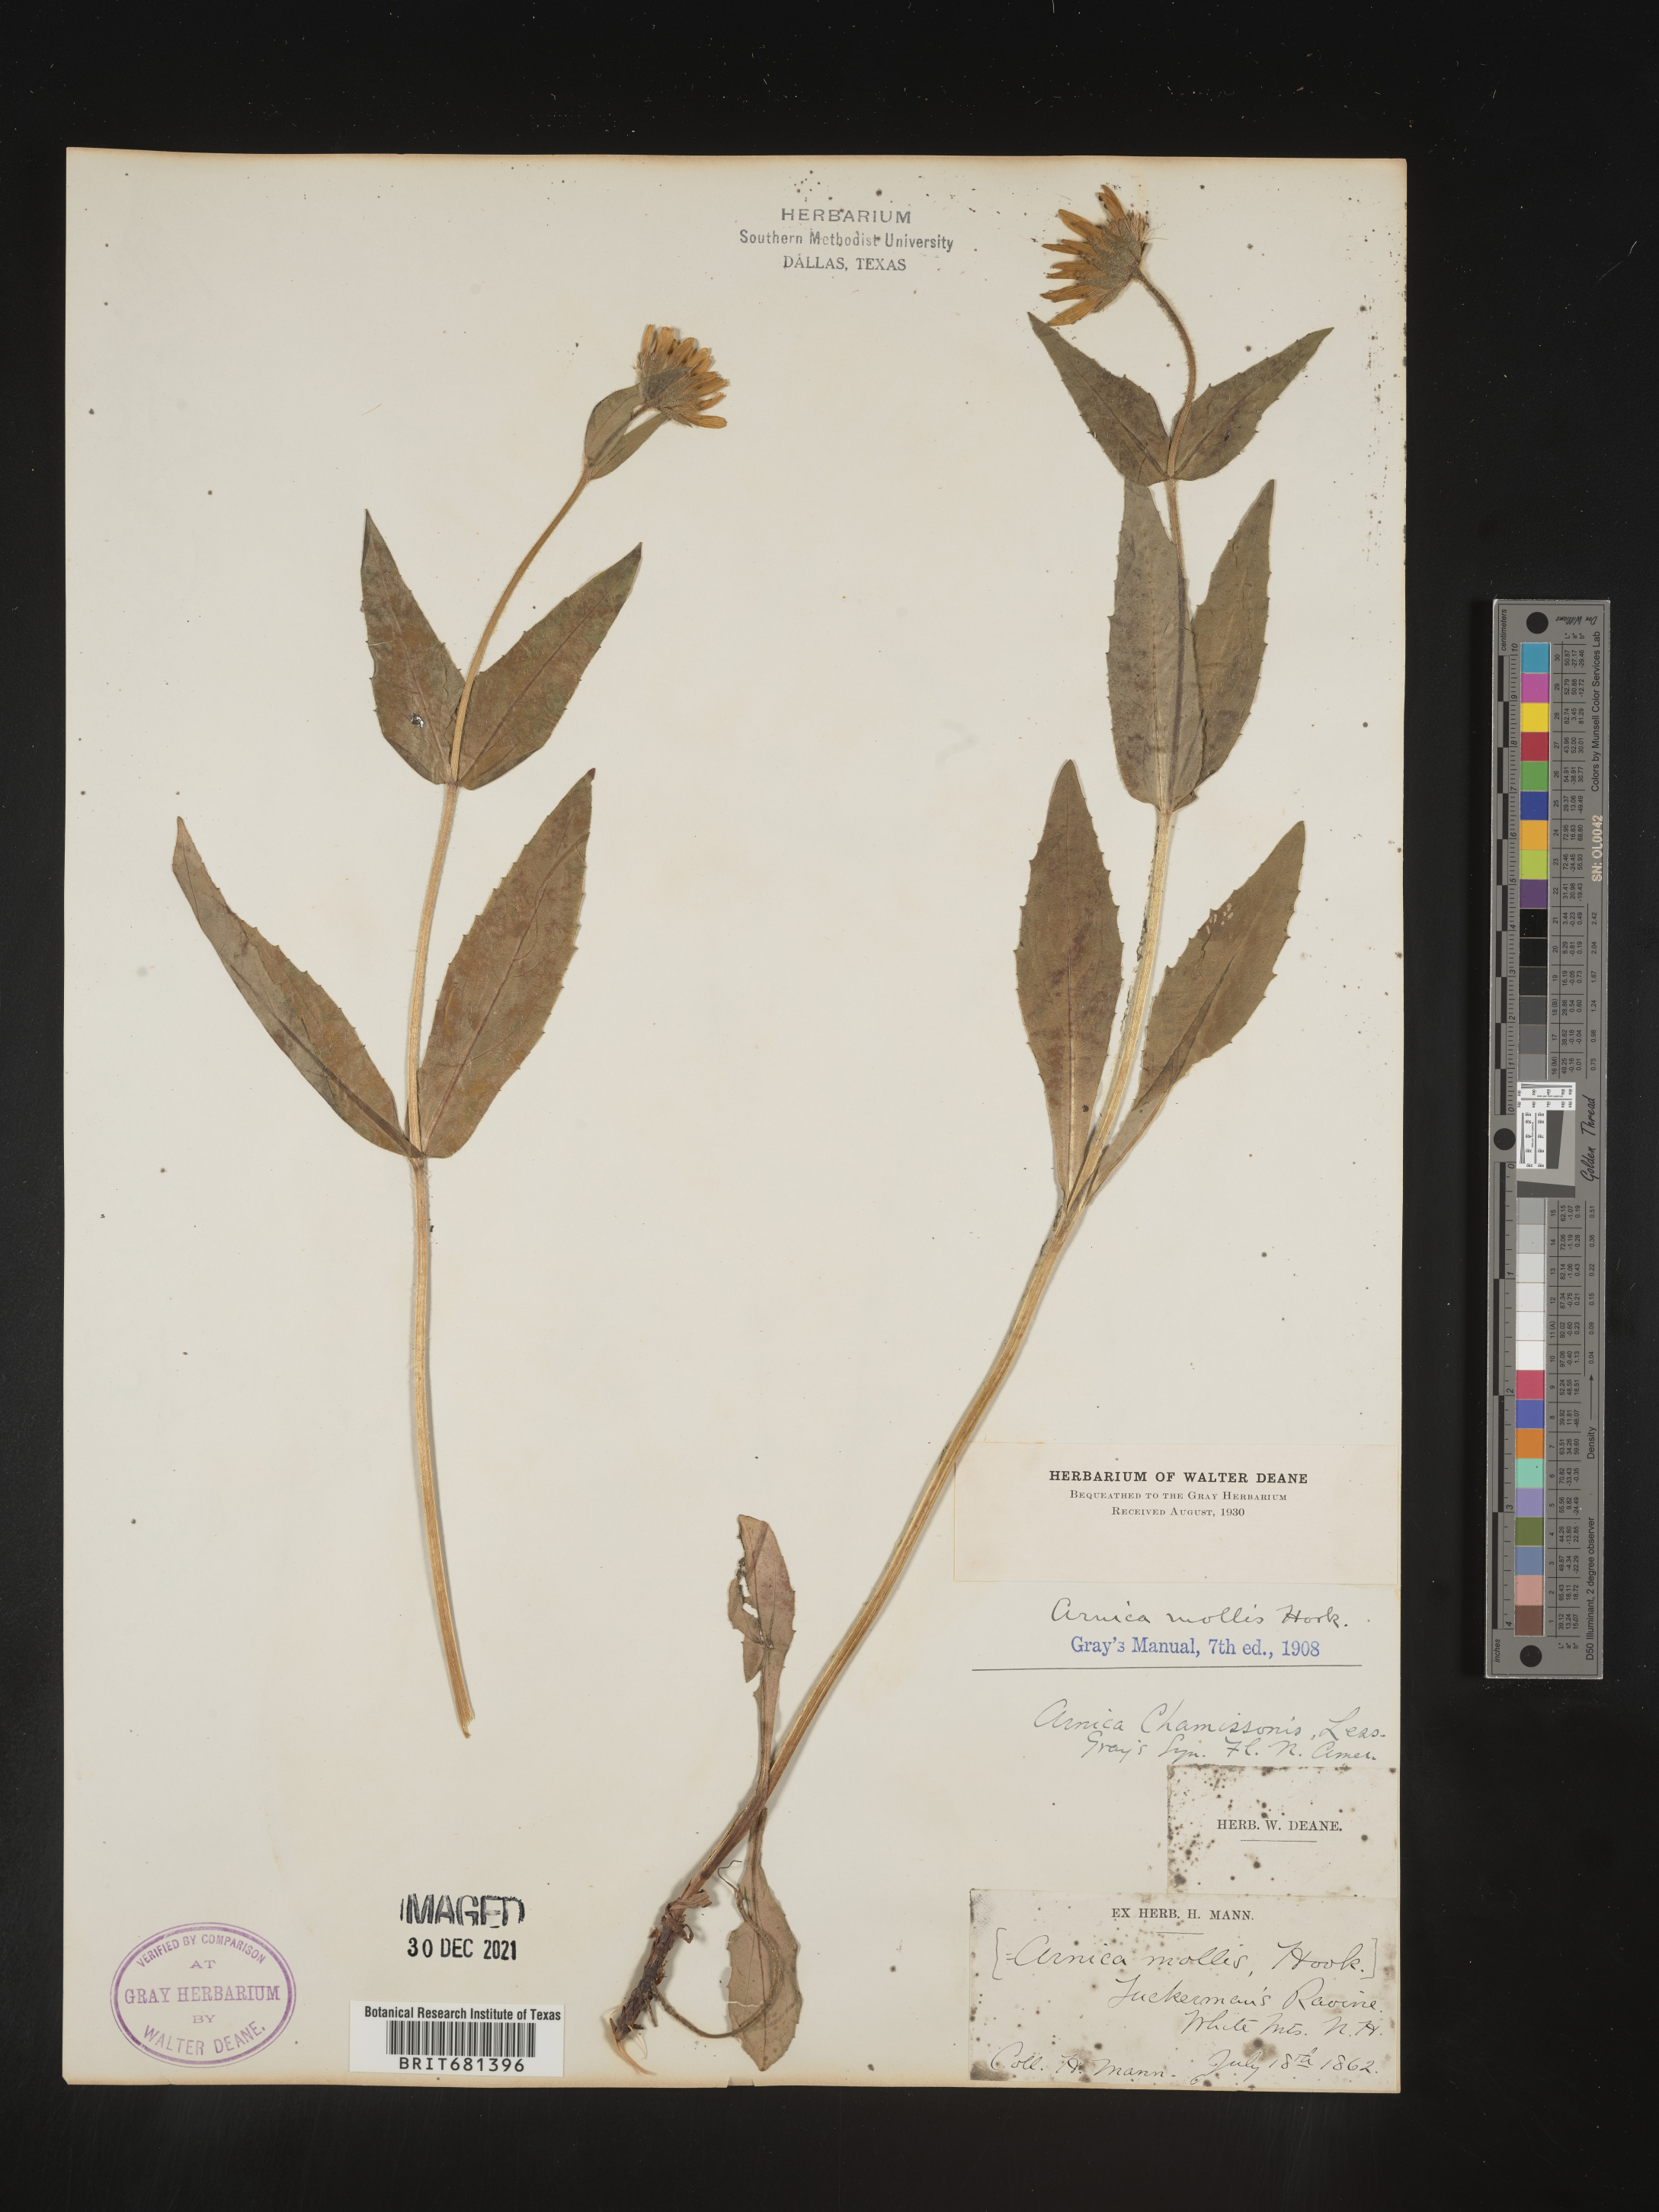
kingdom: Plantae
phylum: Tracheophyta
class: Magnoliopsida
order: Asterales
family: Asteraceae
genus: Arnica
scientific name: Arnica mollis
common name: Hairy arnica
